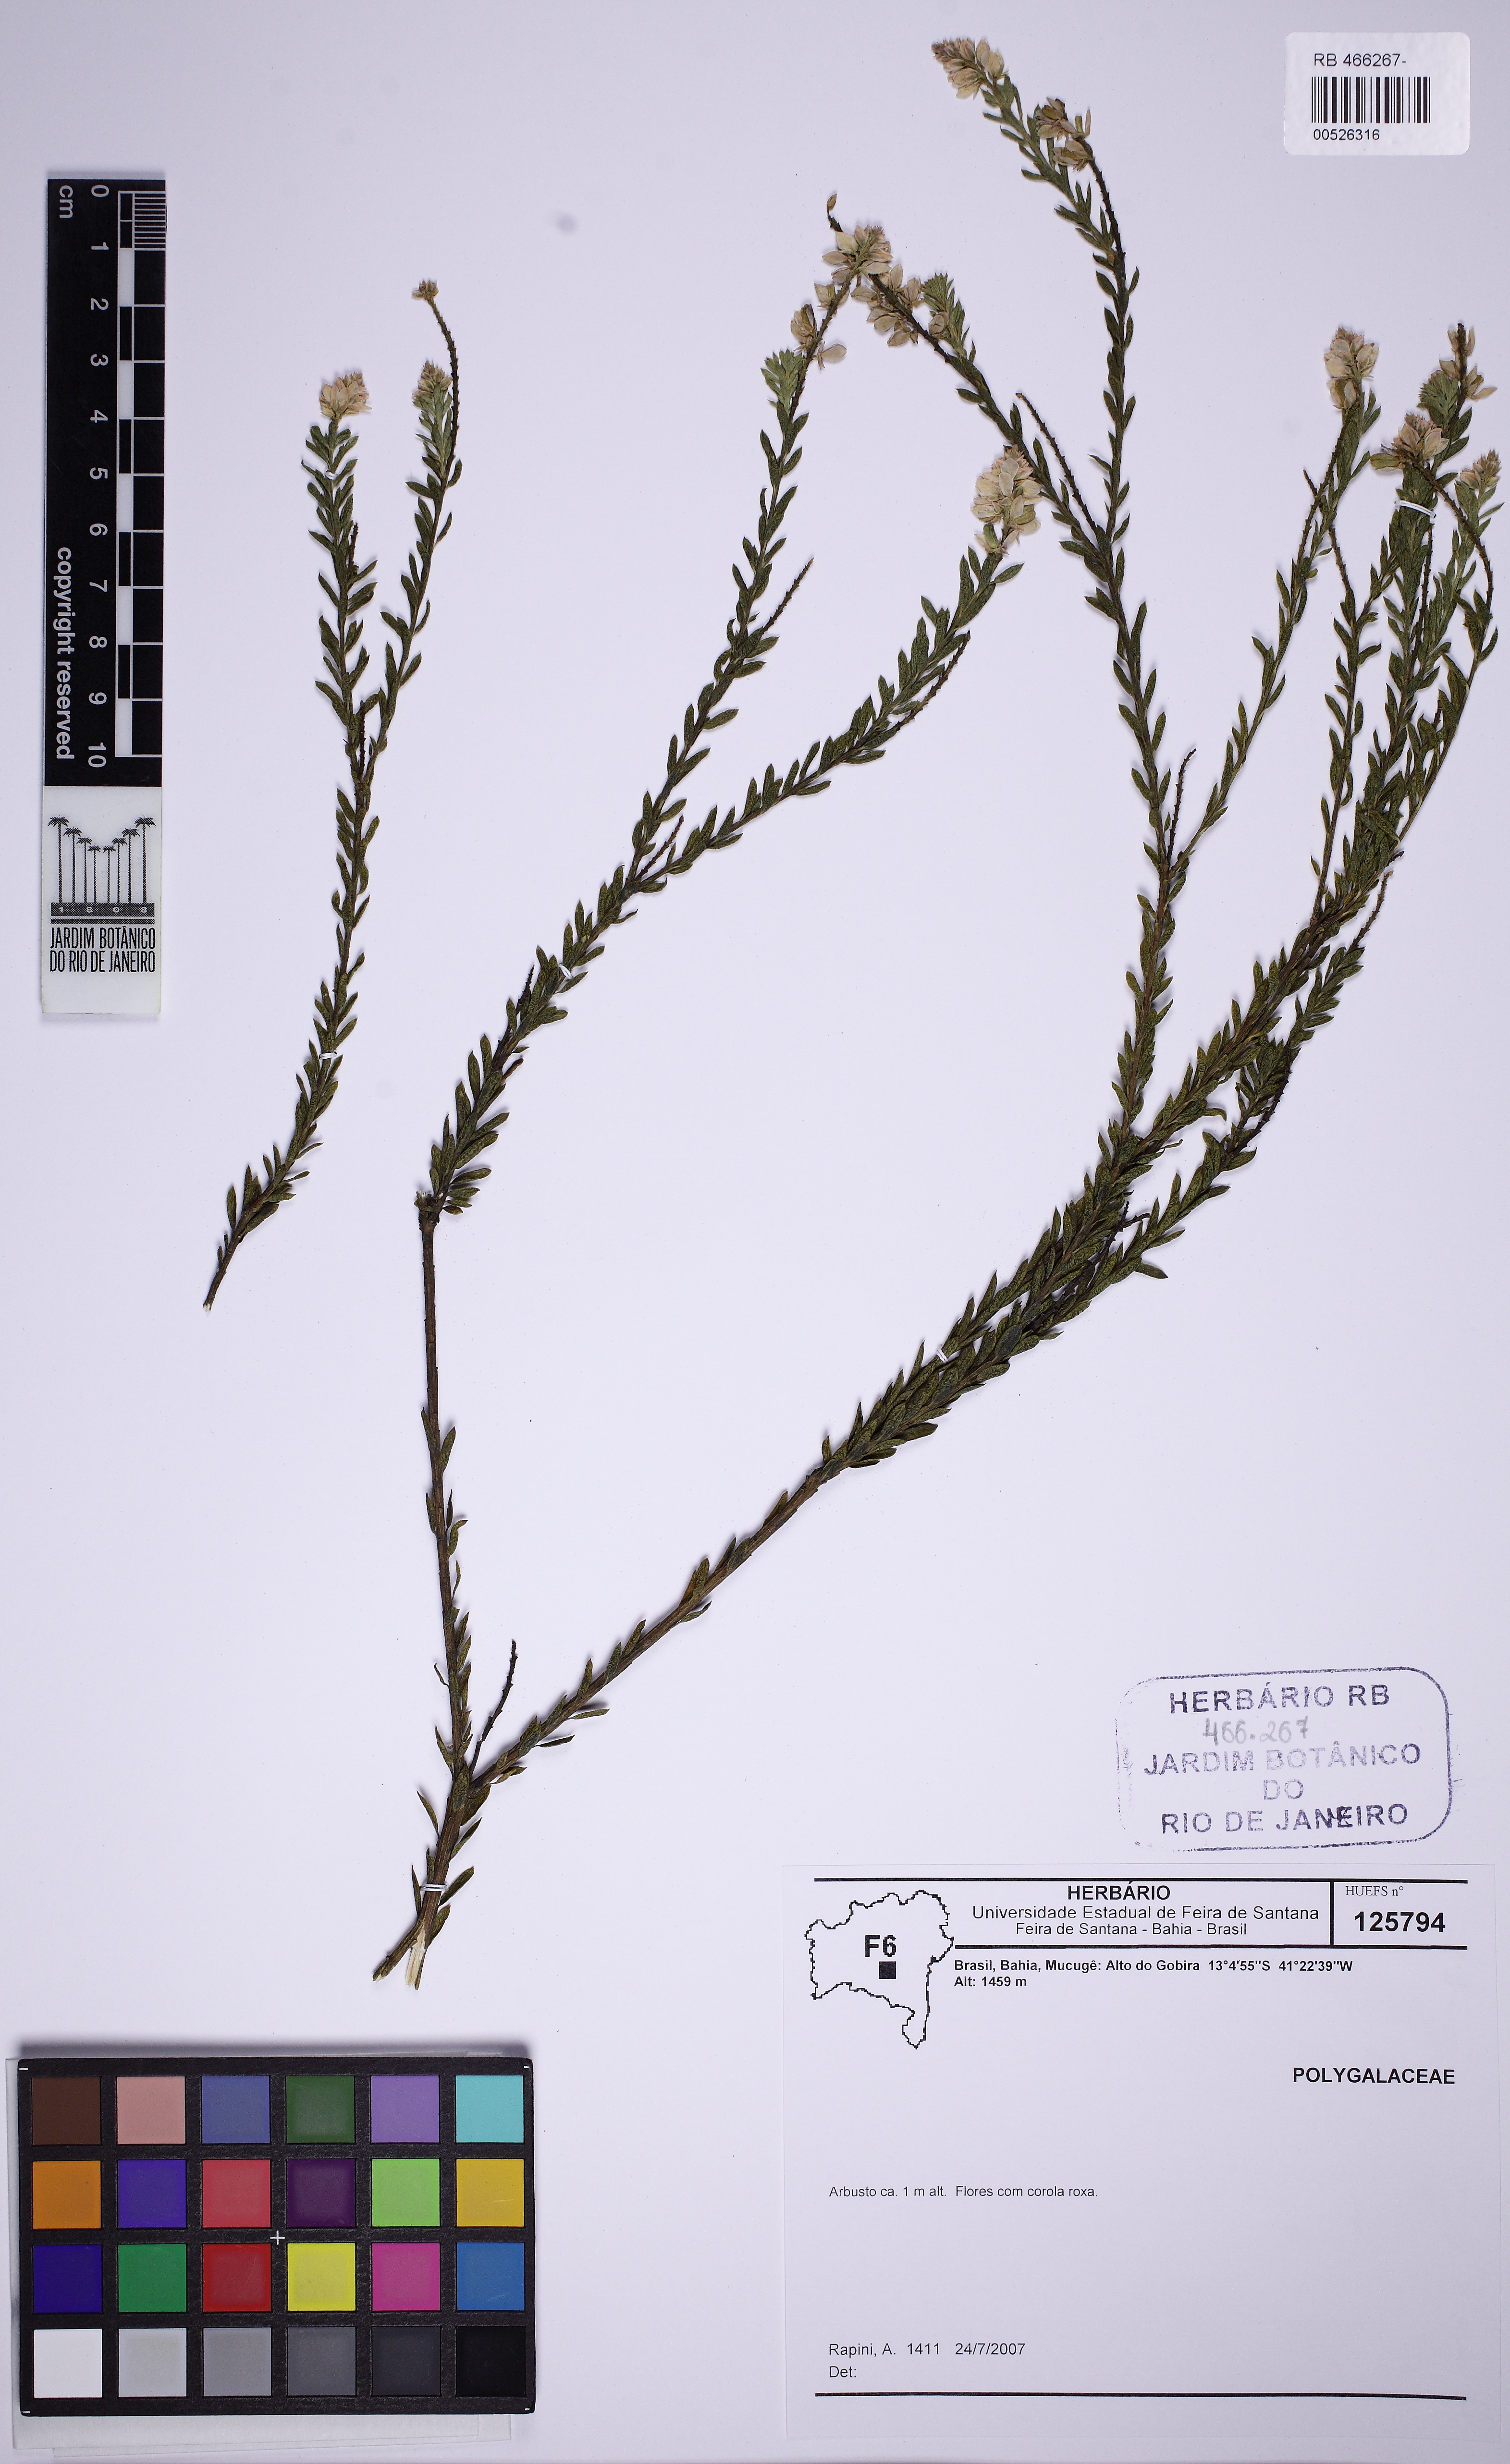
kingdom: Plantae
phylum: Tracheophyta
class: Magnoliopsida
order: Fabales
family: Polygalaceae
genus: Polygala
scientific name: Polygala tuberculata
